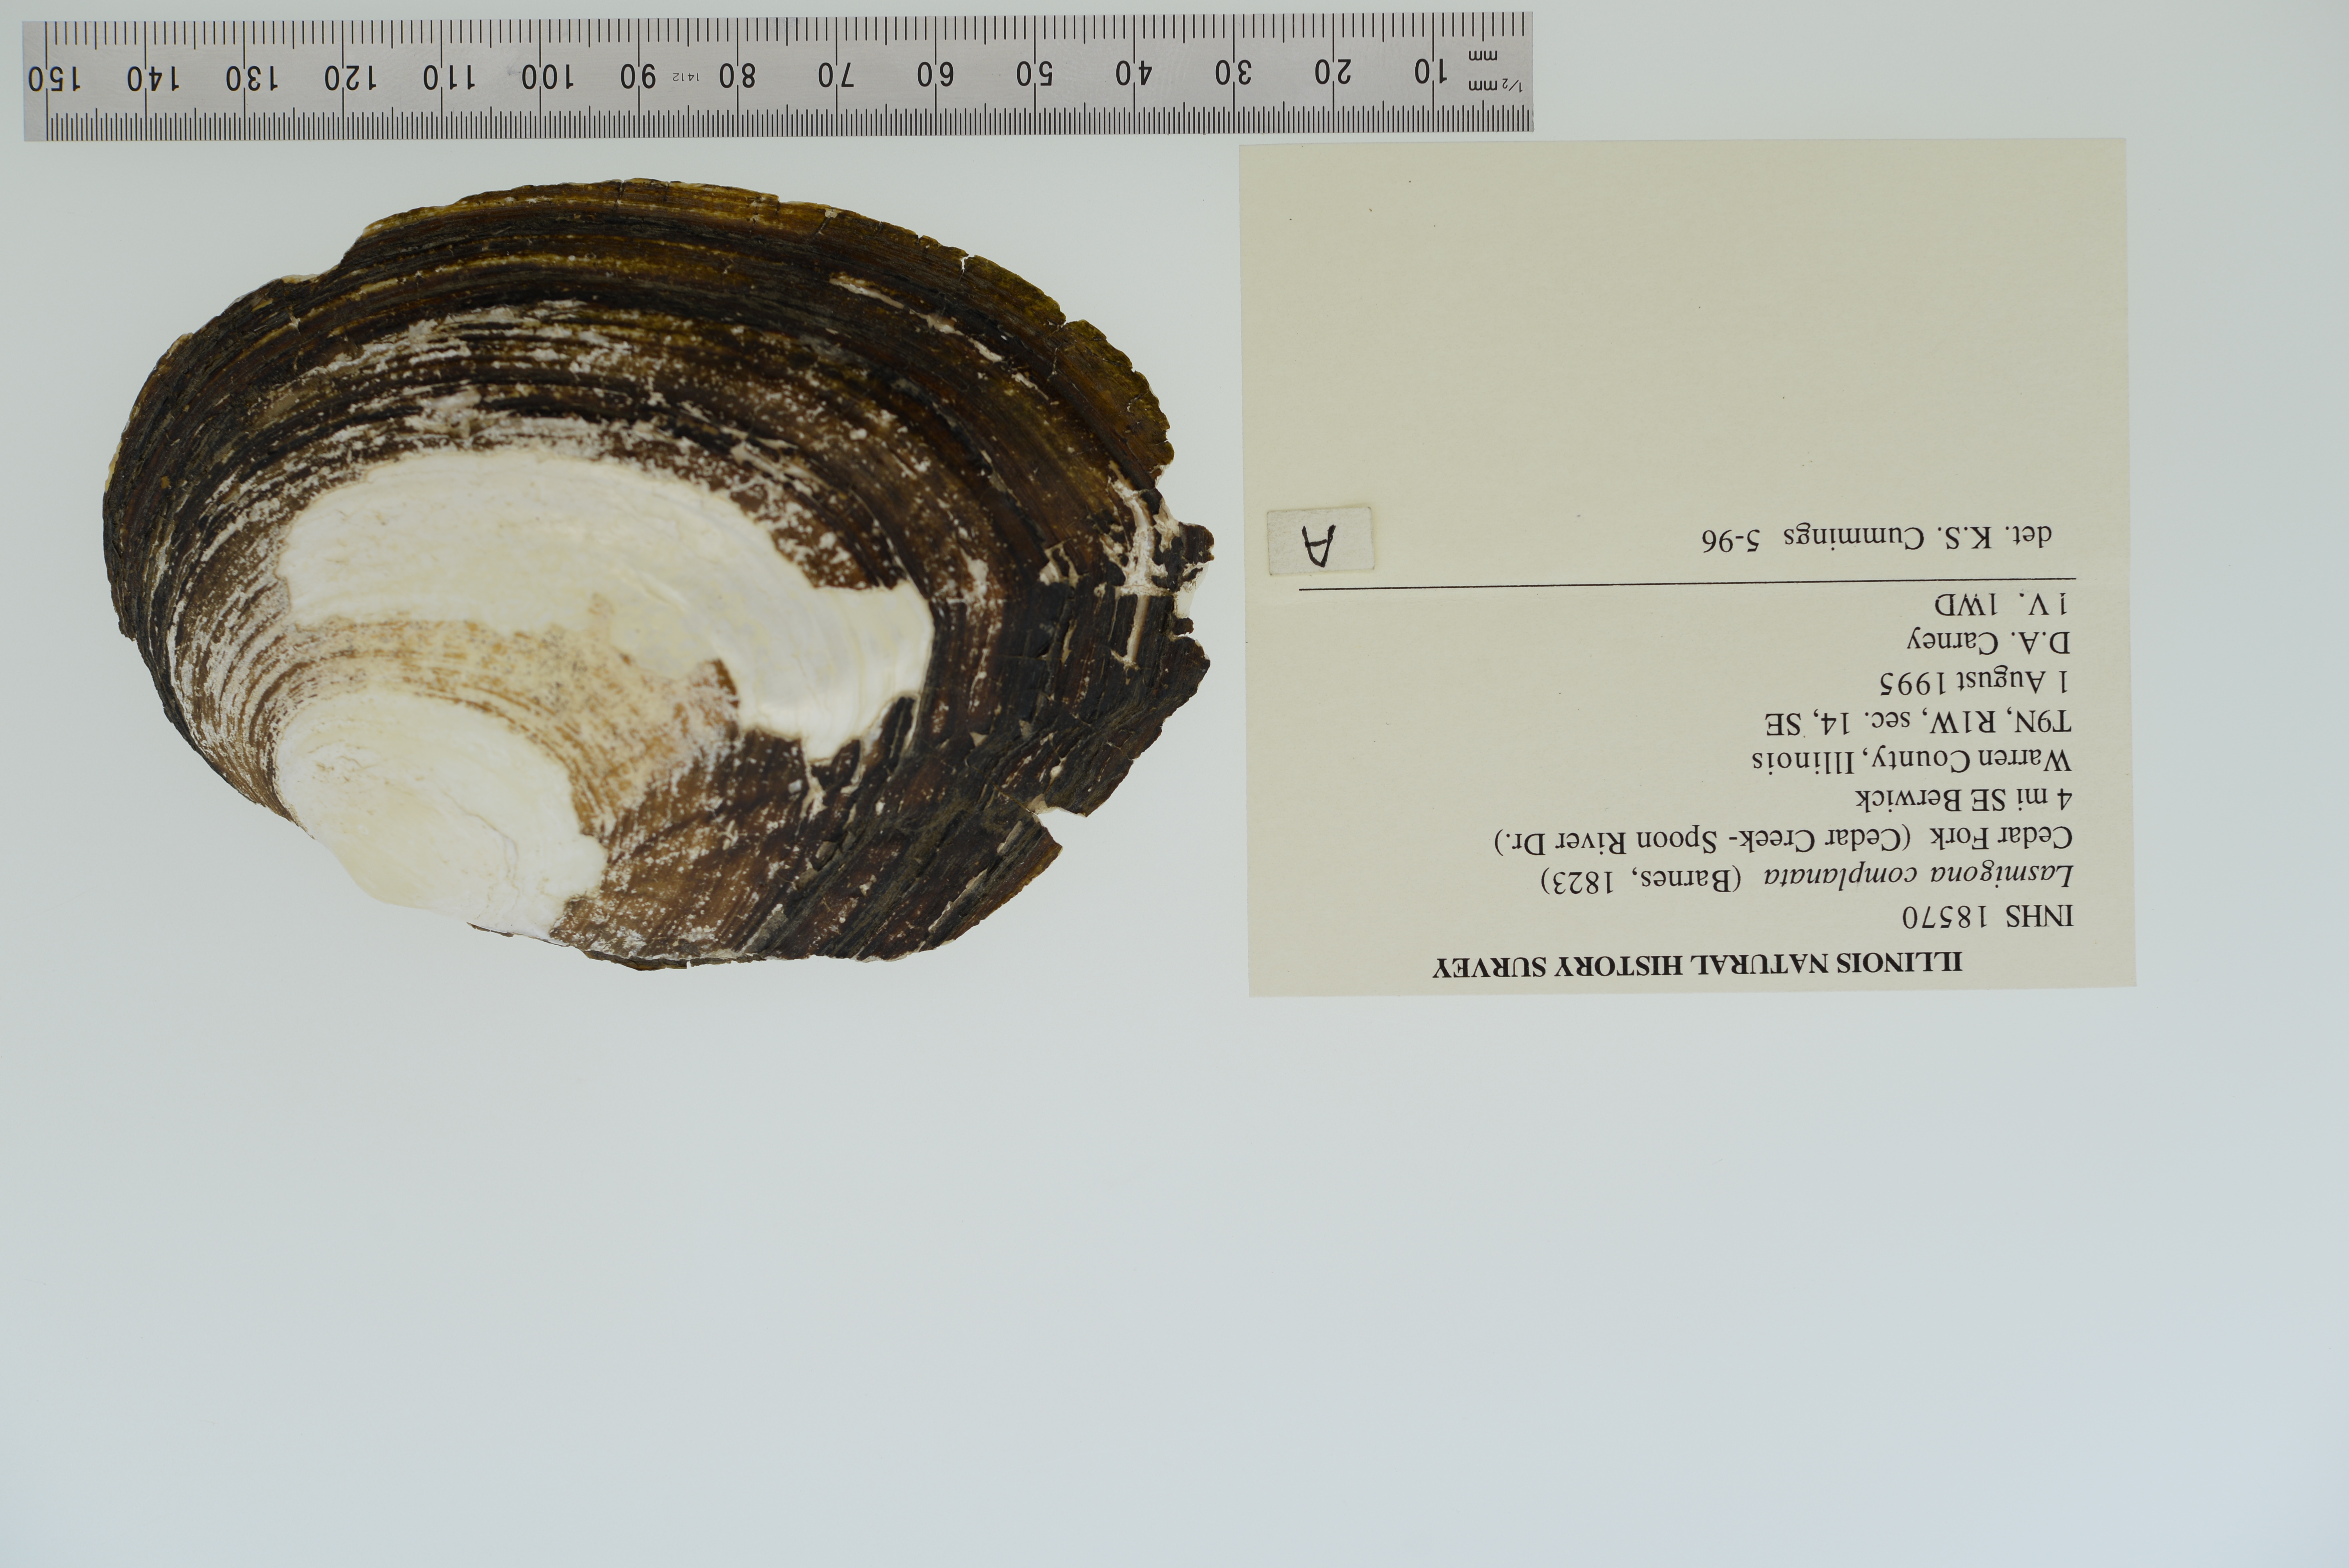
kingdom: Animalia
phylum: Mollusca
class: Bivalvia
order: Unionida
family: Unionidae
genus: Lasmigona
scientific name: Lasmigona complanata
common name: White heelsplitter
